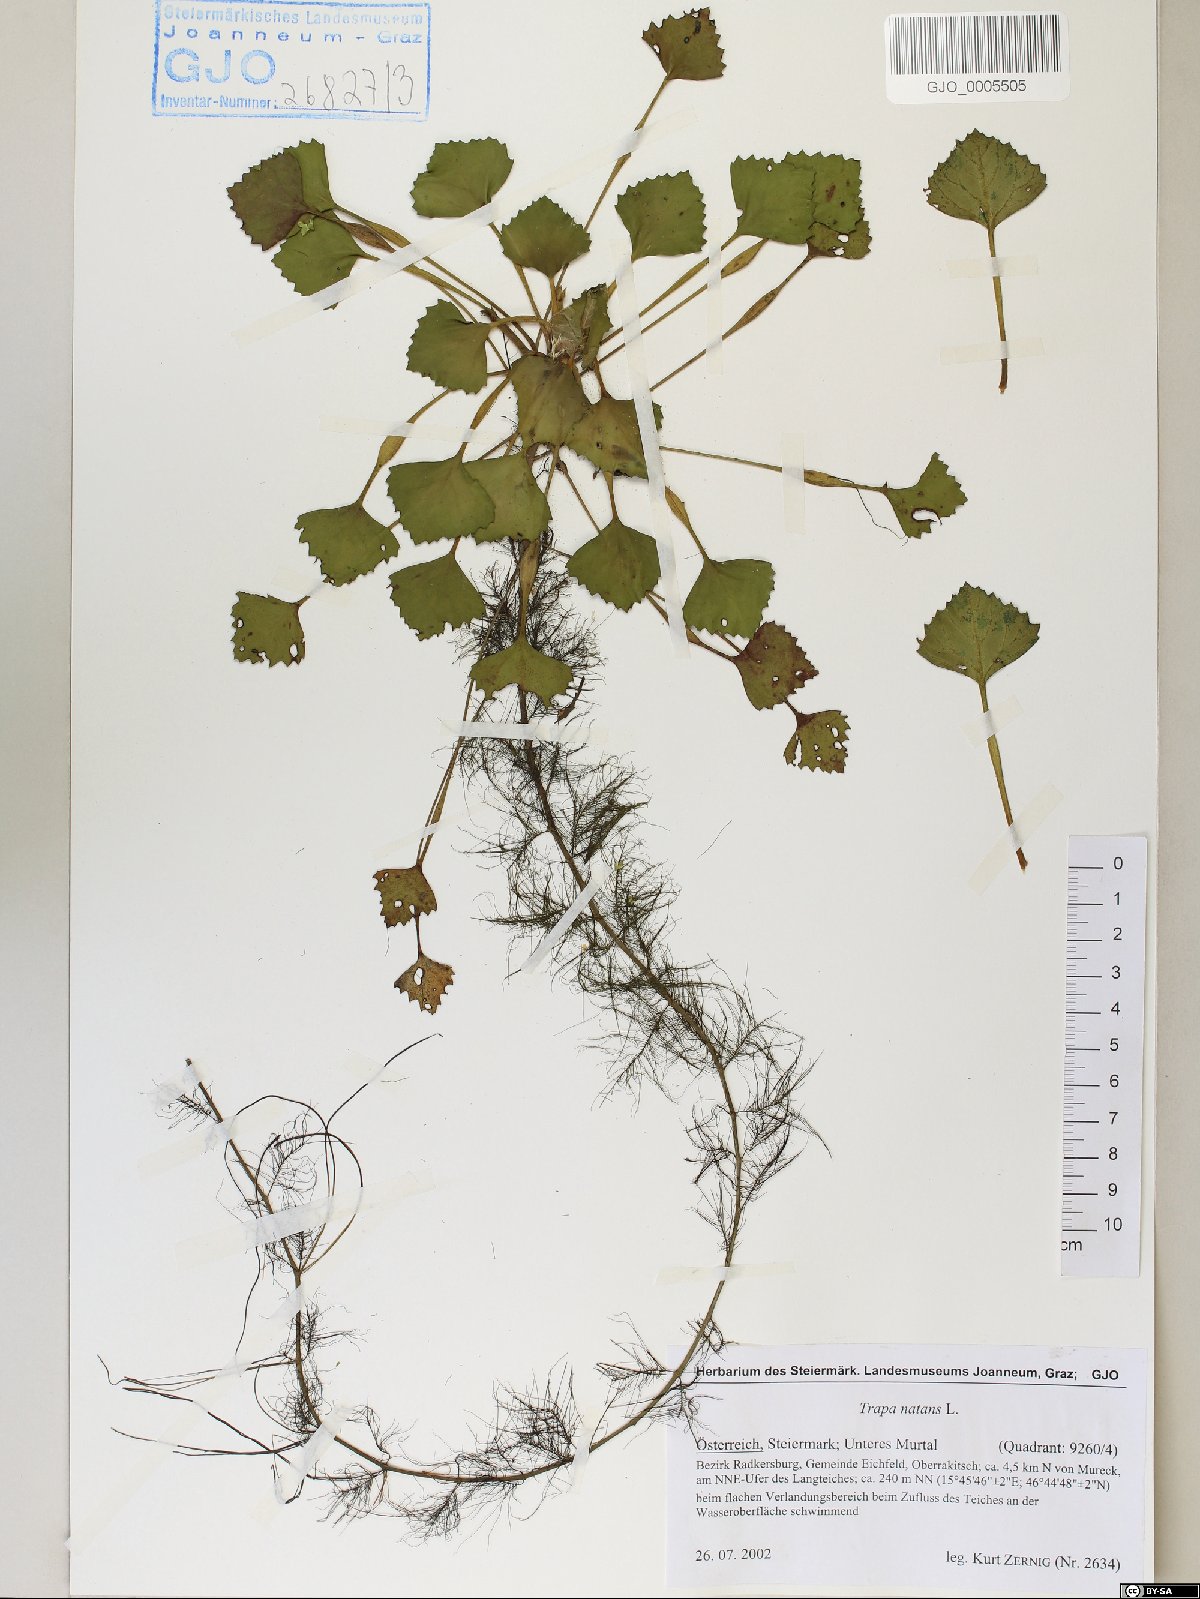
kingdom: Plantae
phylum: Tracheophyta
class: Magnoliopsida
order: Myrtales
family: Lythraceae
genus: Trapa
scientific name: Trapa natans
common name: Water chestnut
